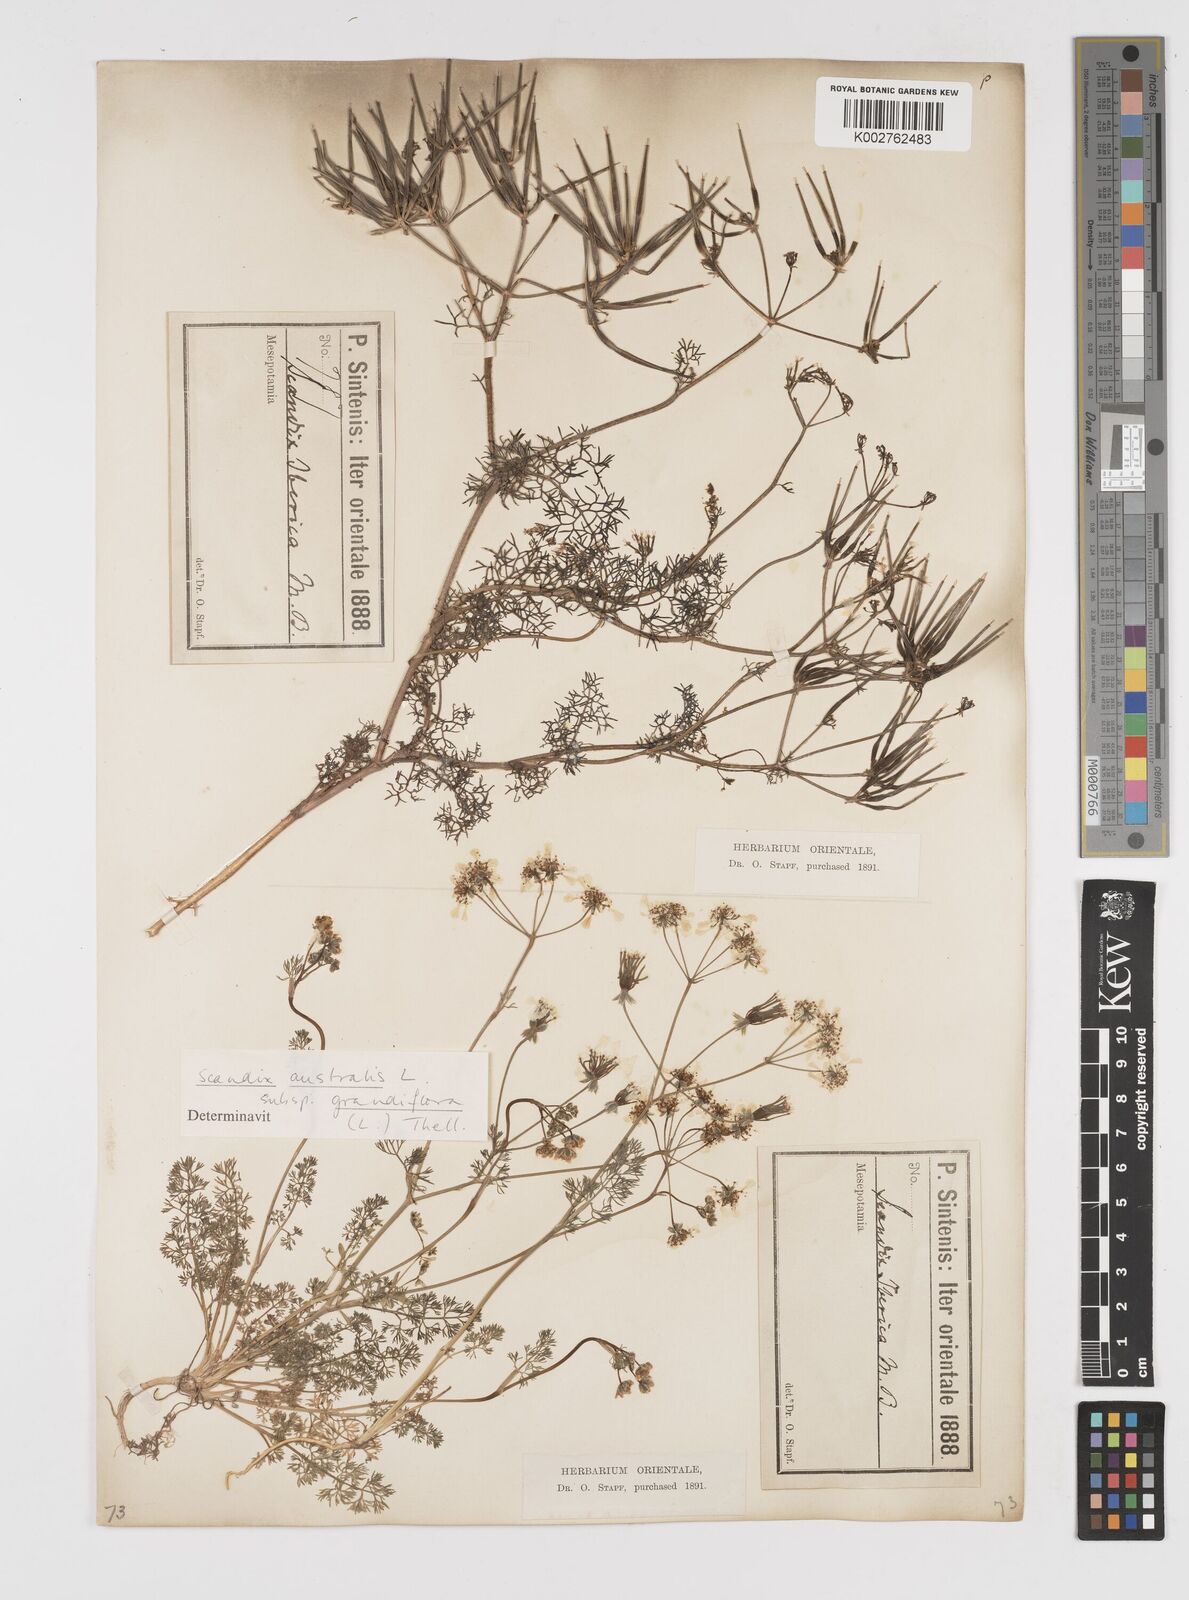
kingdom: Plantae
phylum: Tracheophyta
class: Magnoliopsida
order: Apiales
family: Apiaceae
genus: Scandix
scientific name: Scandix iberica
